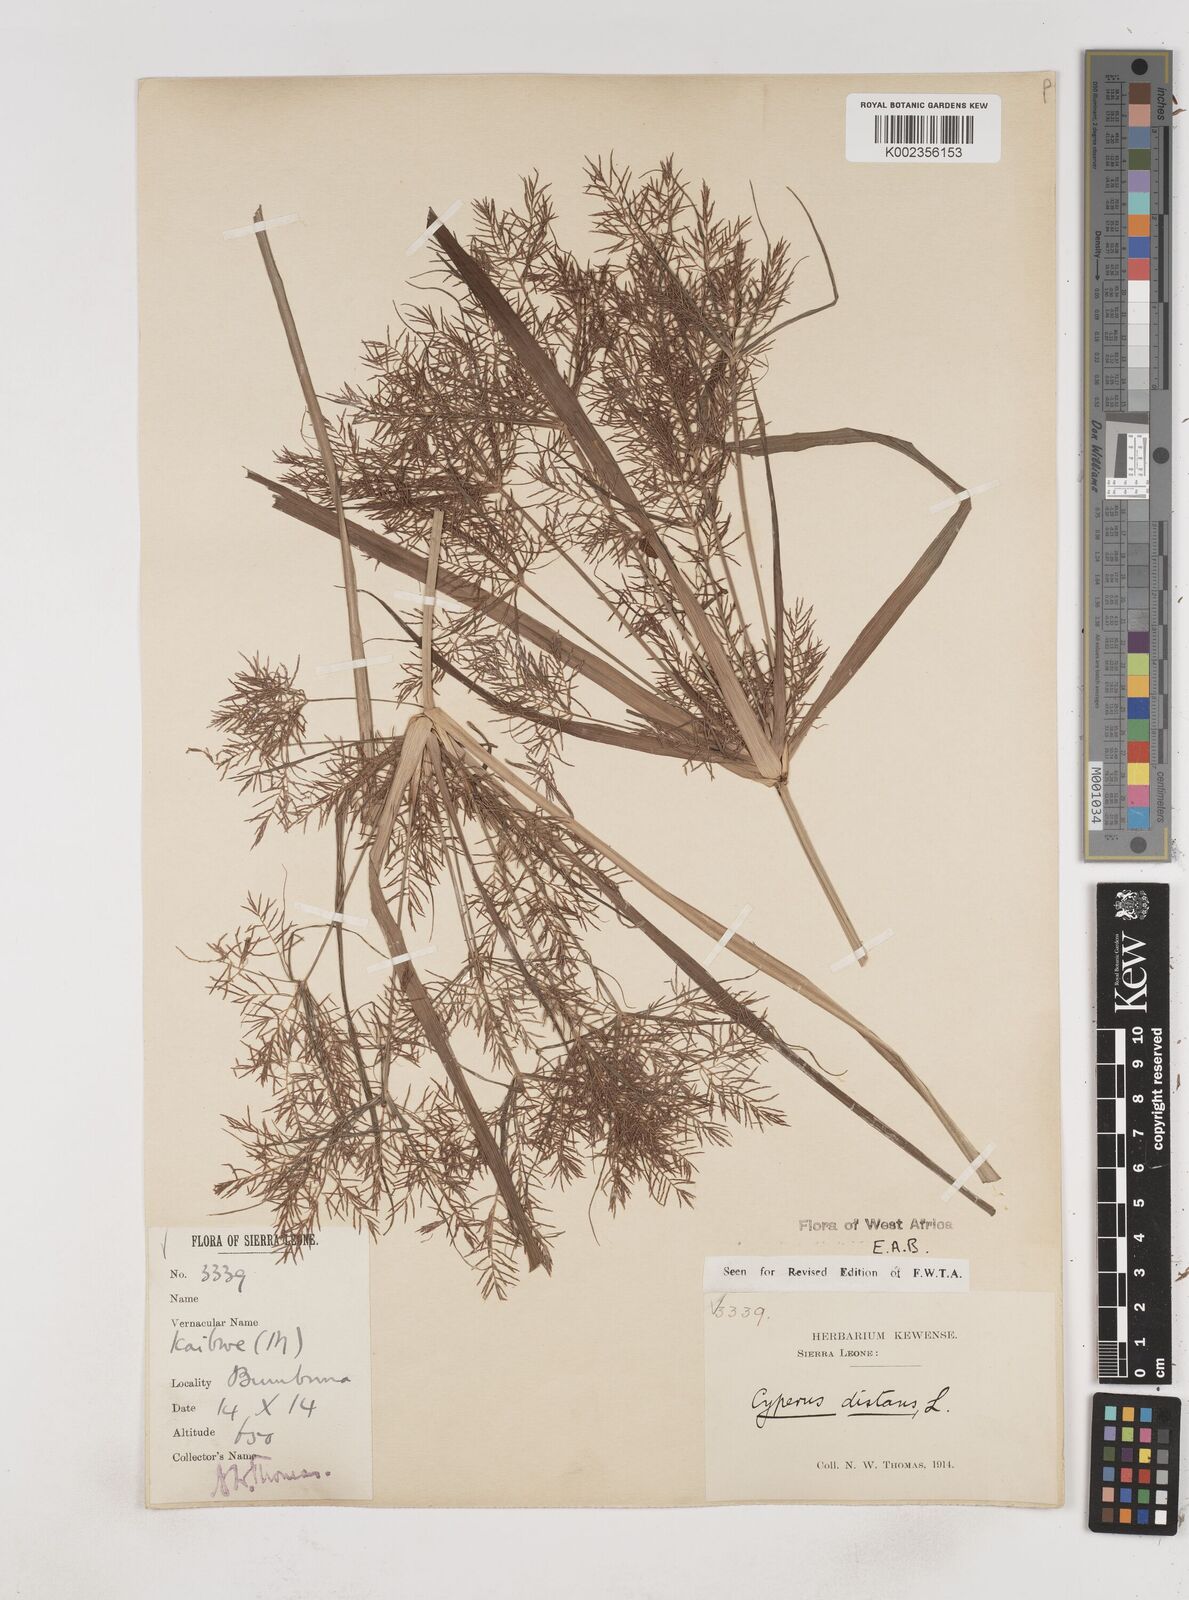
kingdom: Plantae
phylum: Tracheophyta
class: Liliopsida
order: Poales
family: Cyperaceae
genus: Cyperus
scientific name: Cyperus distans
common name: Slender cyperus
